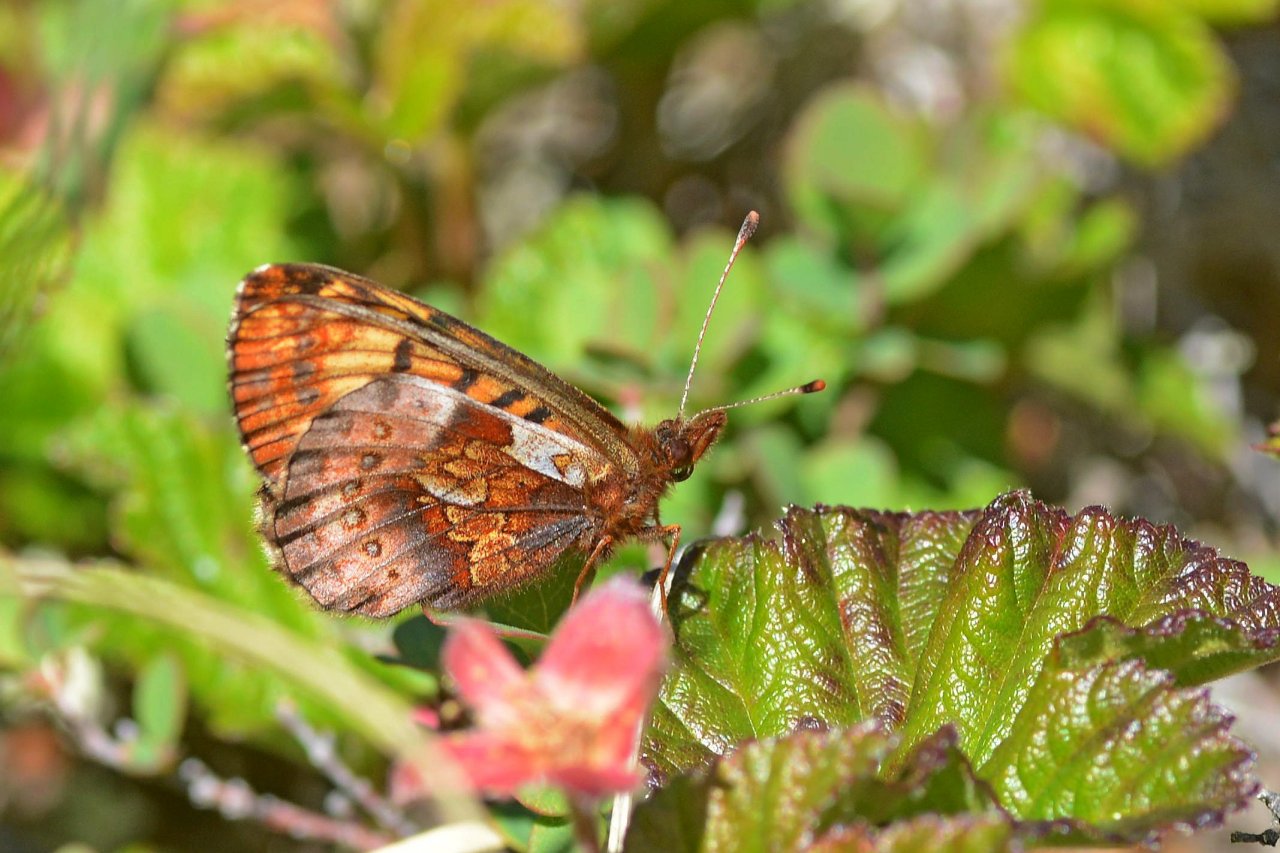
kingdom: Animalia
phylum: Arthropoda
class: Insecta
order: Lepidoptera
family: Nymphalidae
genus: Boloria
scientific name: Boloria frigga
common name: Frigga Fritillary
